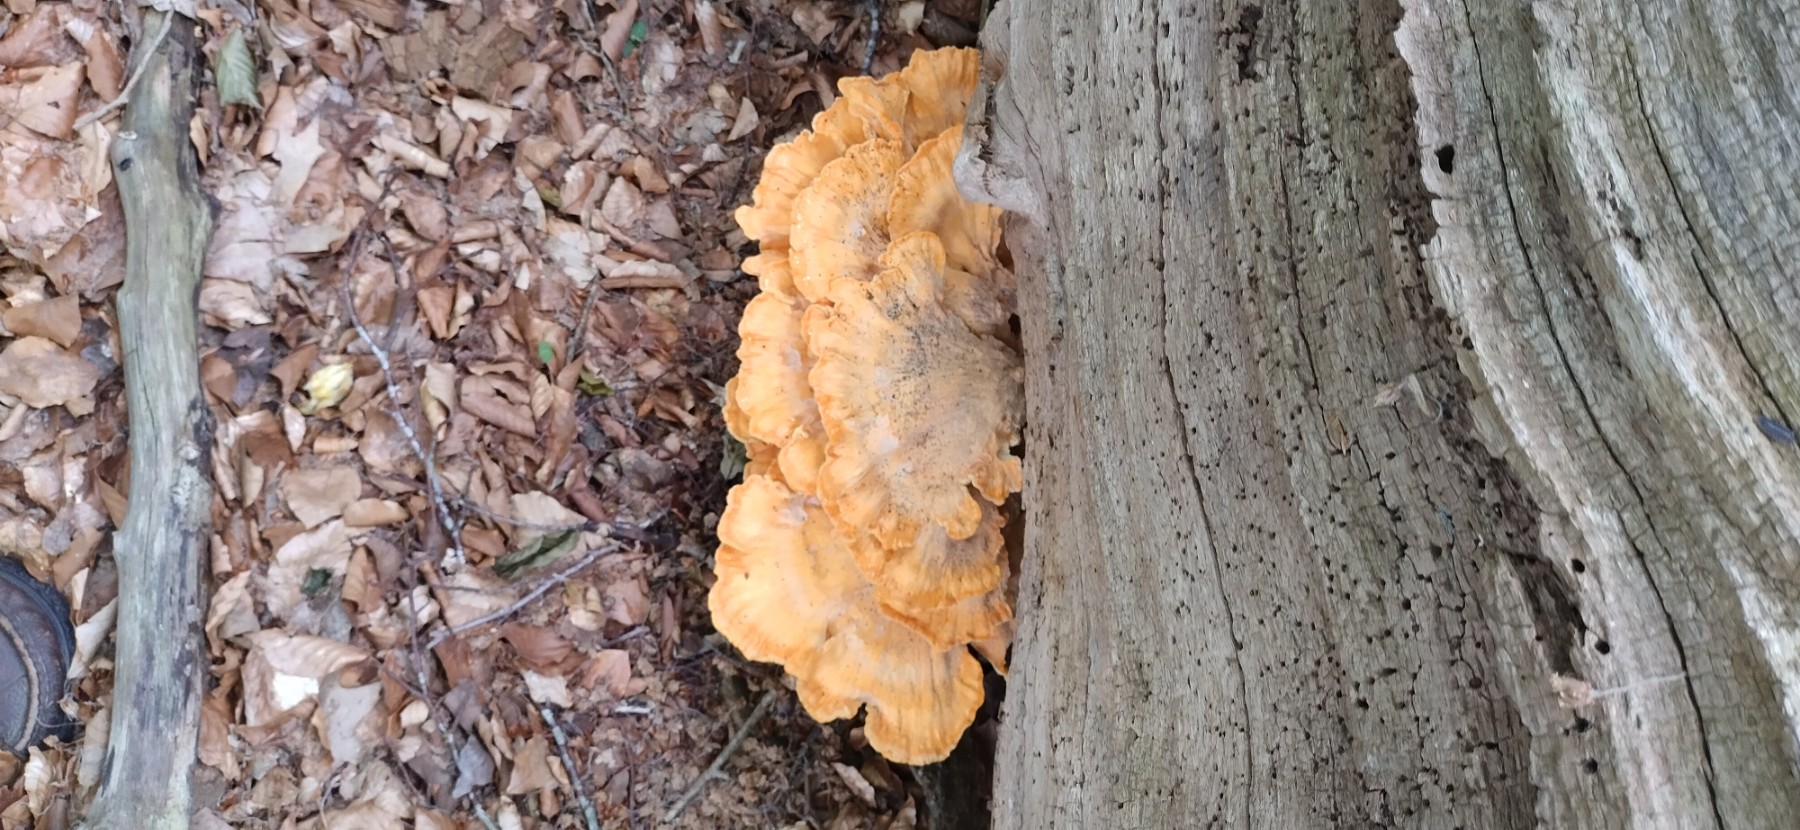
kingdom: Fungi
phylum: Basidiomycota
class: Agaricomycetes
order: Polyporales
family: Laetiporaceae
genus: Laetiporus
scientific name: Laetiporus sulphureus
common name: svovlporesvamp
